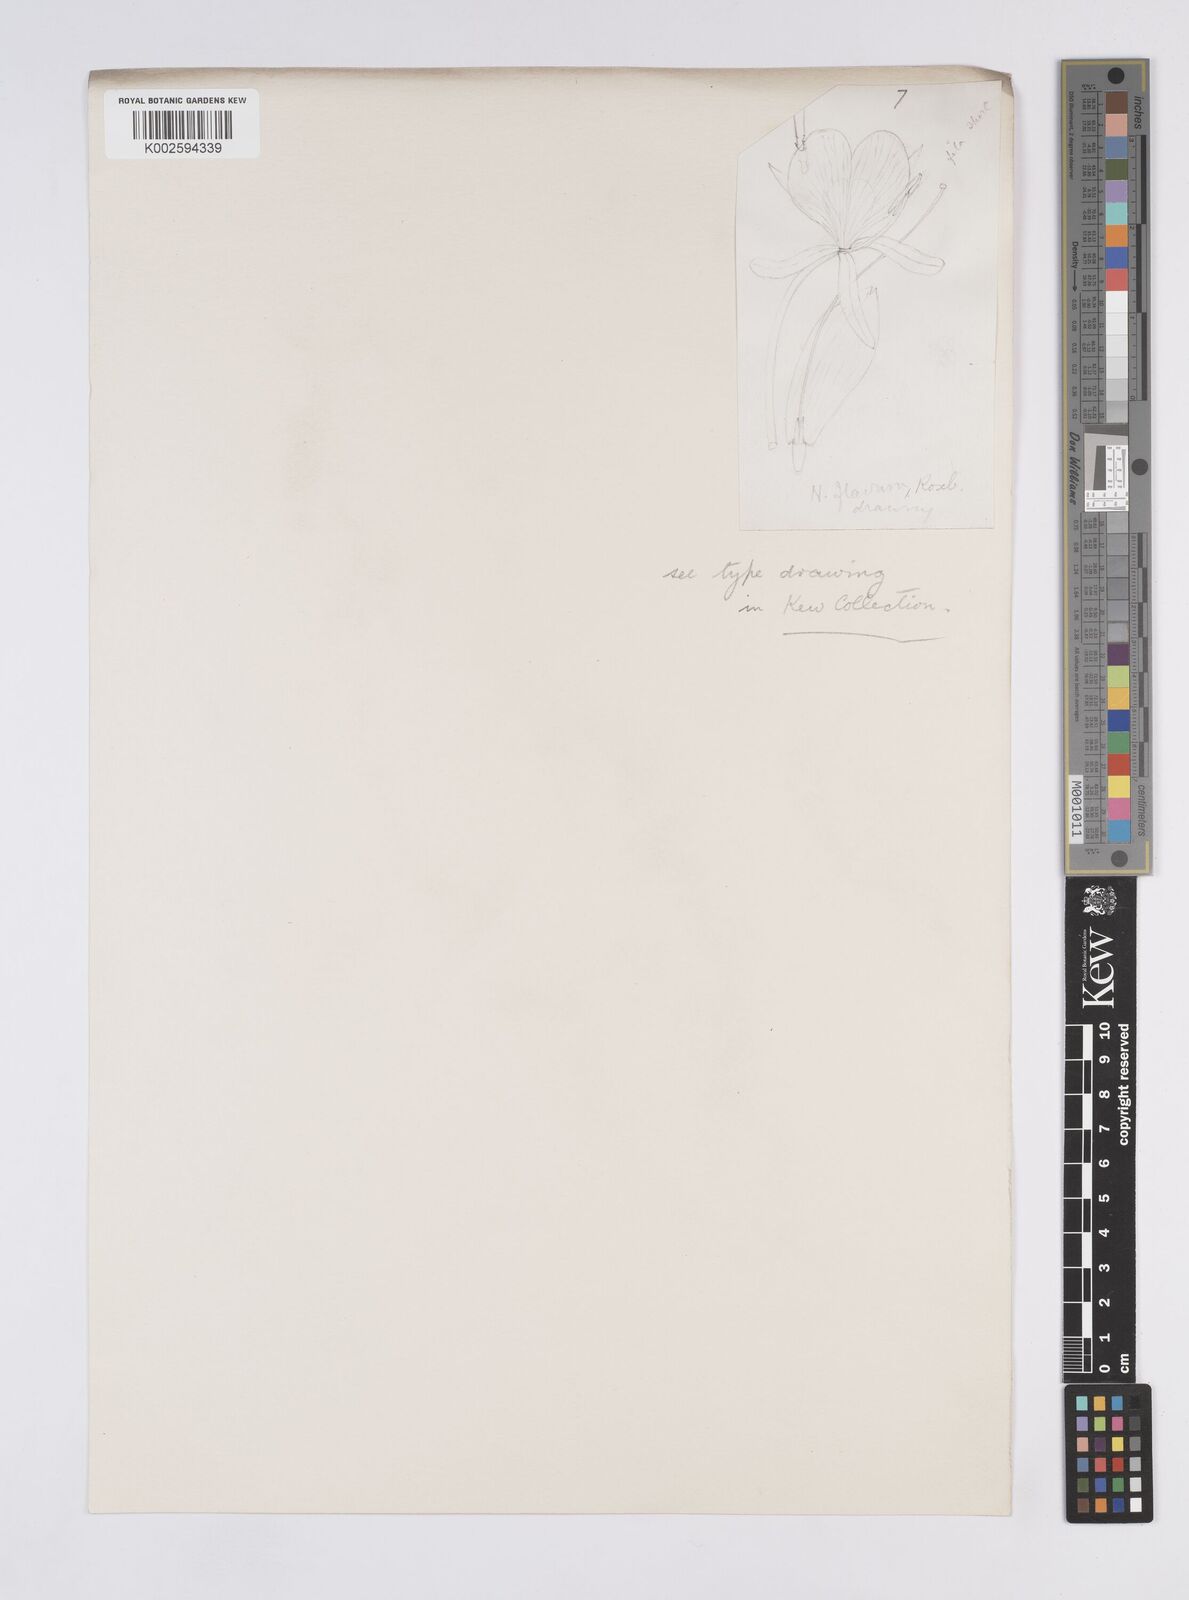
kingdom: Plantae
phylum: Tracheophyta
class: Liliopsida
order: Zingiberales
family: Zingiberaceae
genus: Hedychium
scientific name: Hedychium flavum
